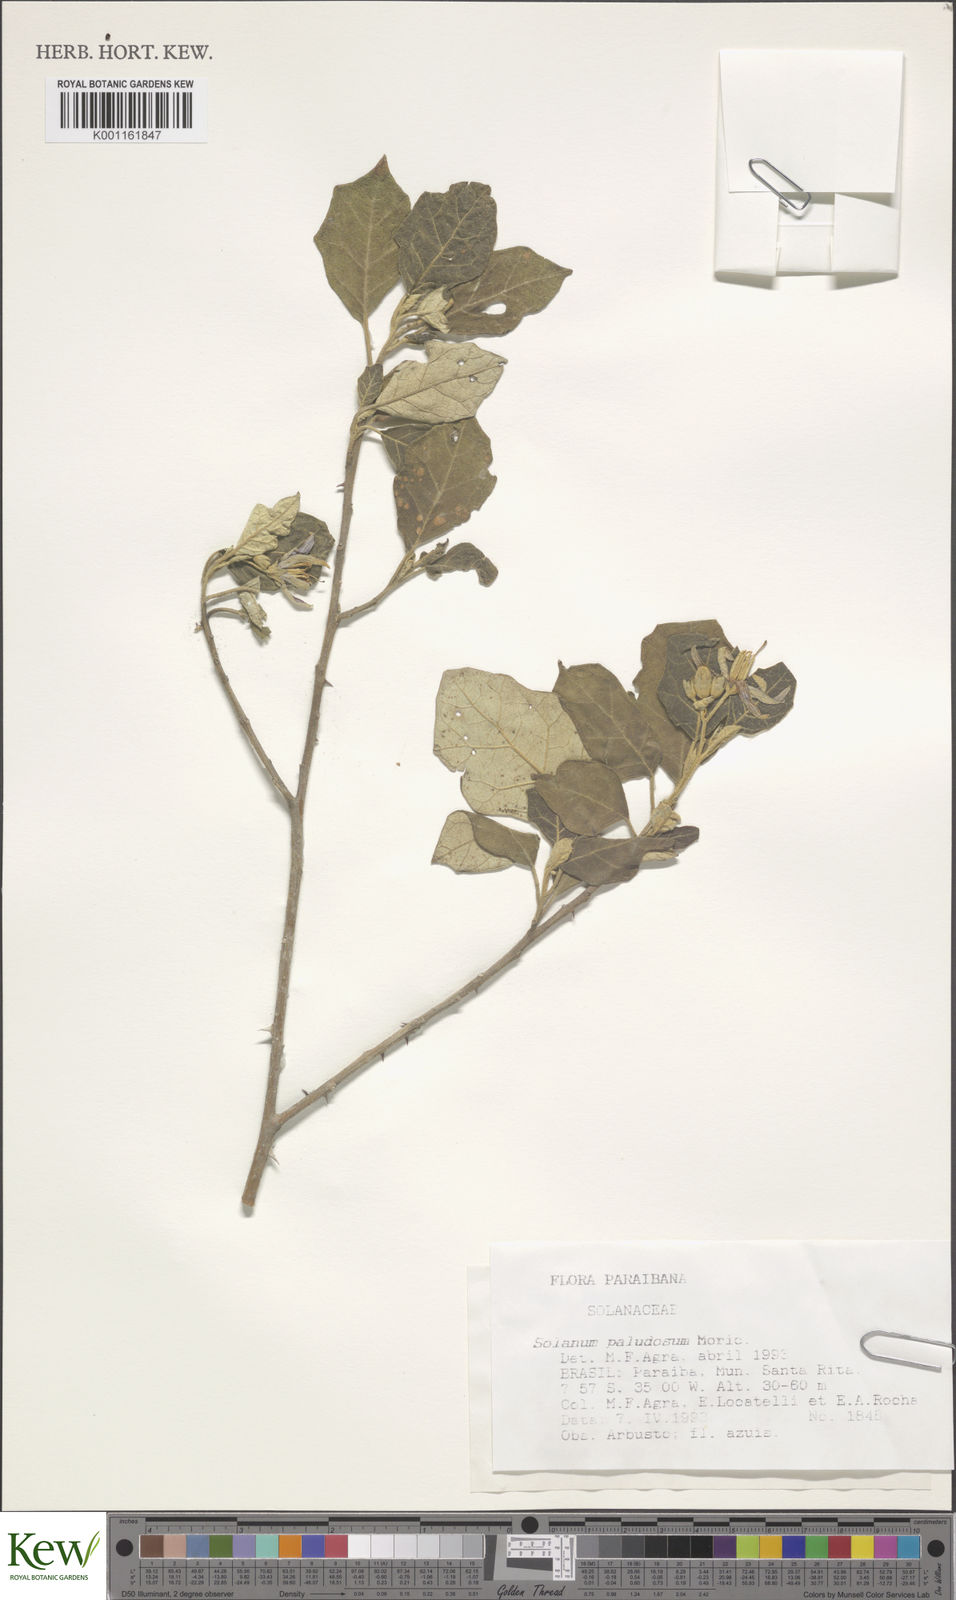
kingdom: Plantae
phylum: Tracheophyta
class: Magnoliopsida
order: Solanales
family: Solanaceae
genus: Solanum
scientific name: Solanum paludosum
